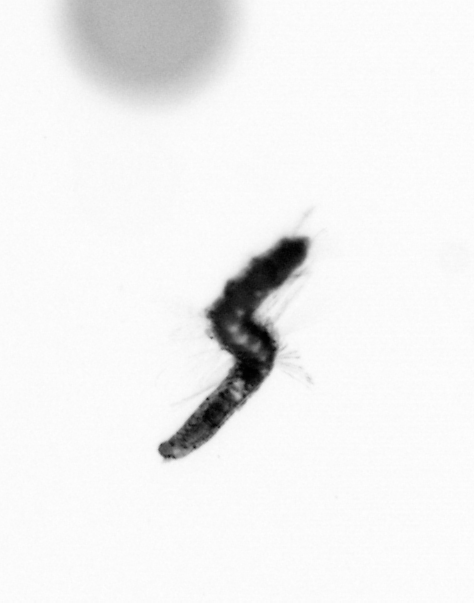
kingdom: Animalia
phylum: Annelida
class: Polychaeta
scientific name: Polychaeta
